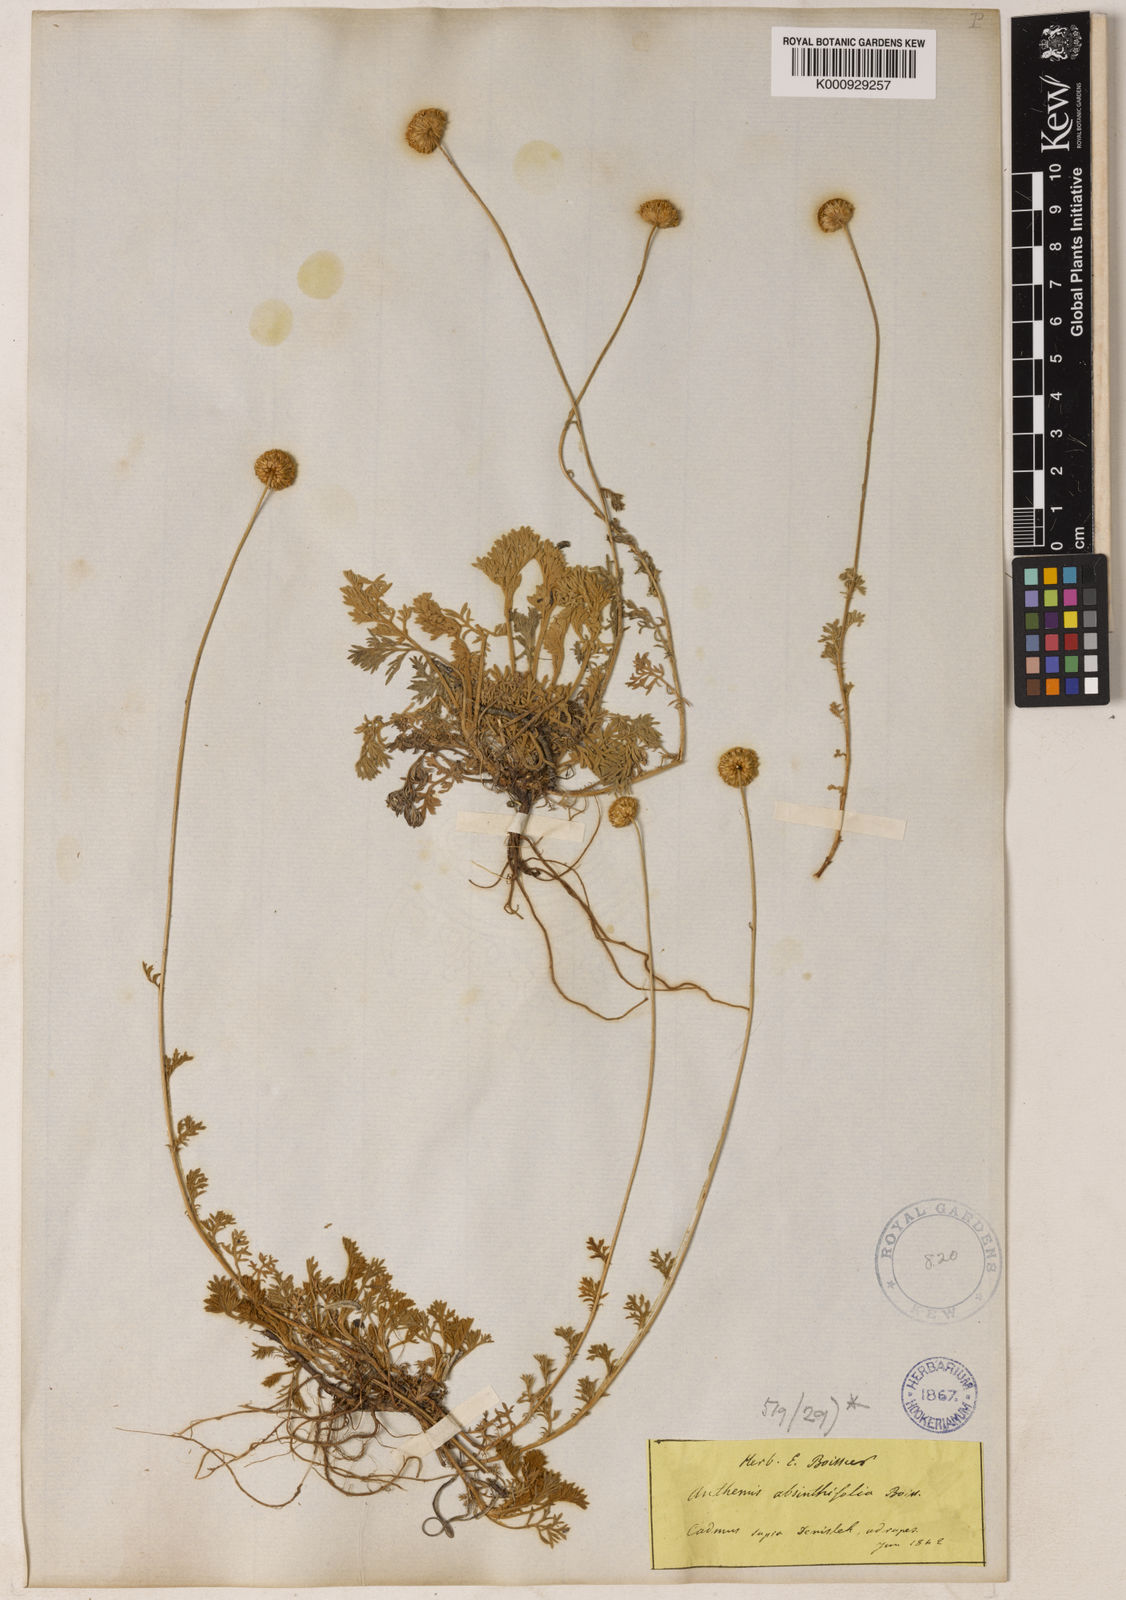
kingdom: Plantae
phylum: Tracheophyta
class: Magnoliopsida
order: Asterales
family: Asteraceae
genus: Anthemis
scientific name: Anthemis cretica
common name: Mountain dog-daisy
